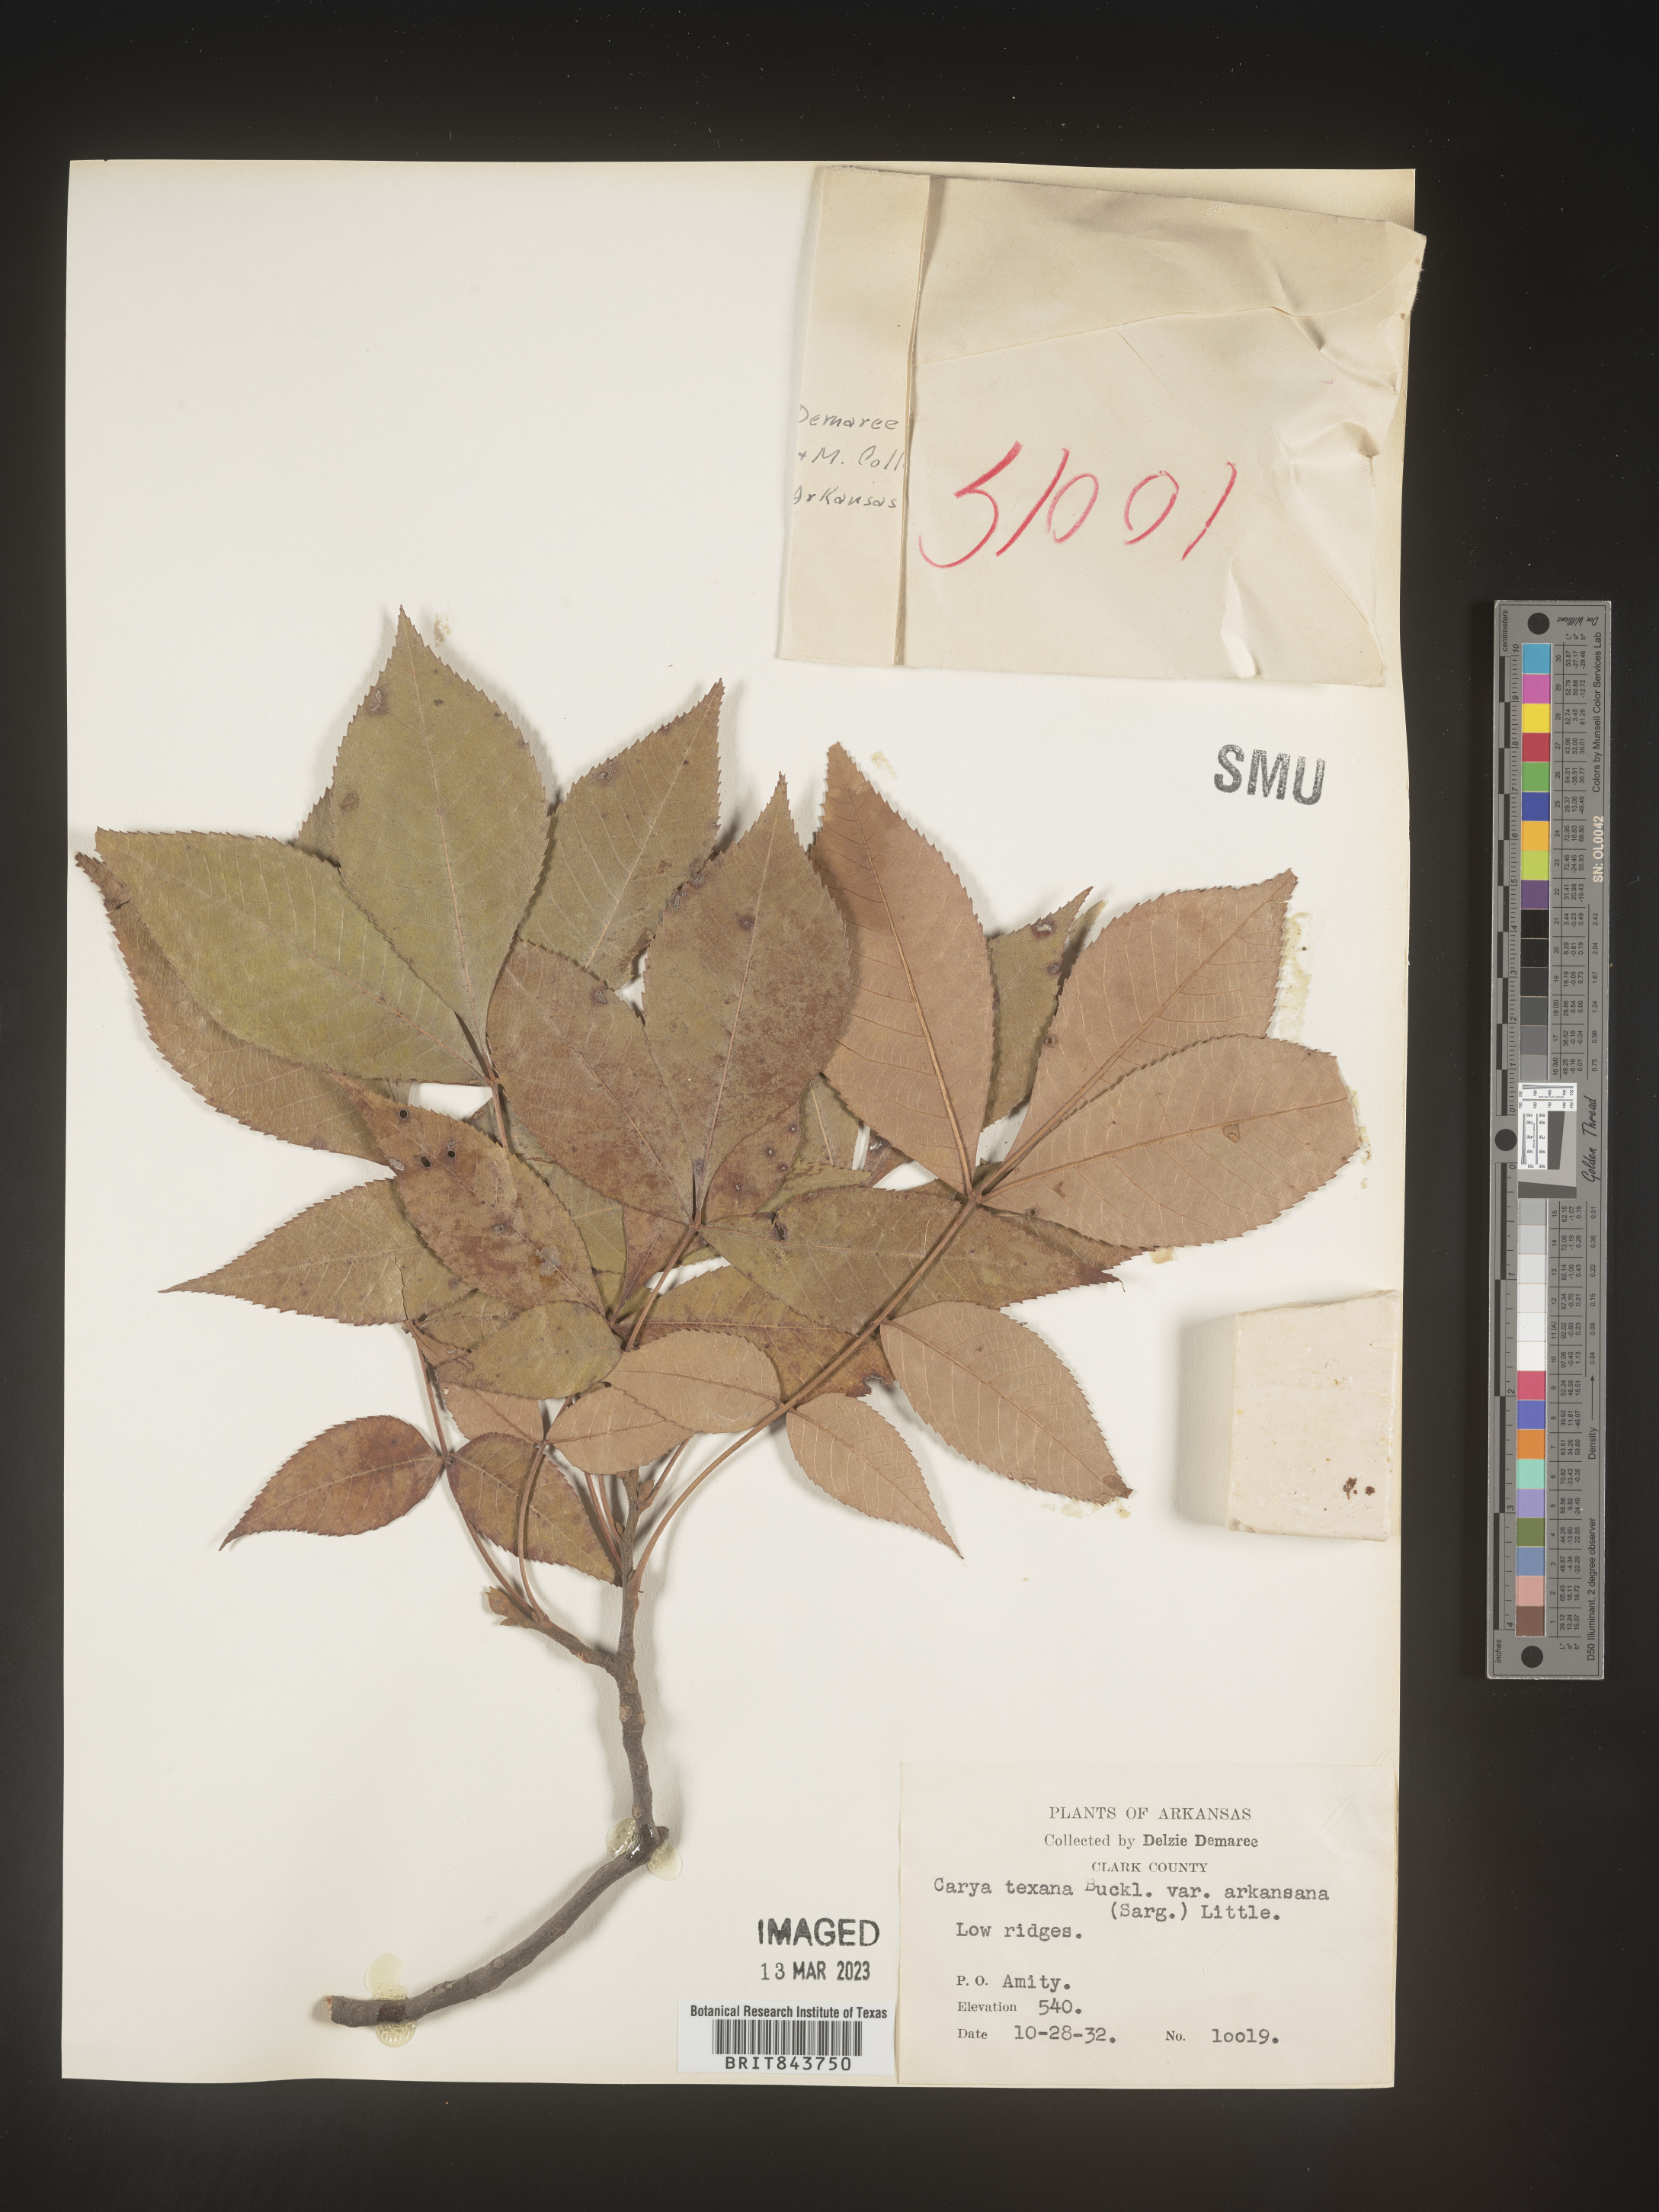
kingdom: Plantae
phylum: Tracheophyta
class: Magnoliopsida
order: Fagales
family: Juglandaceae
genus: Carya
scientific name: Carya texana
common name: Black hickory
